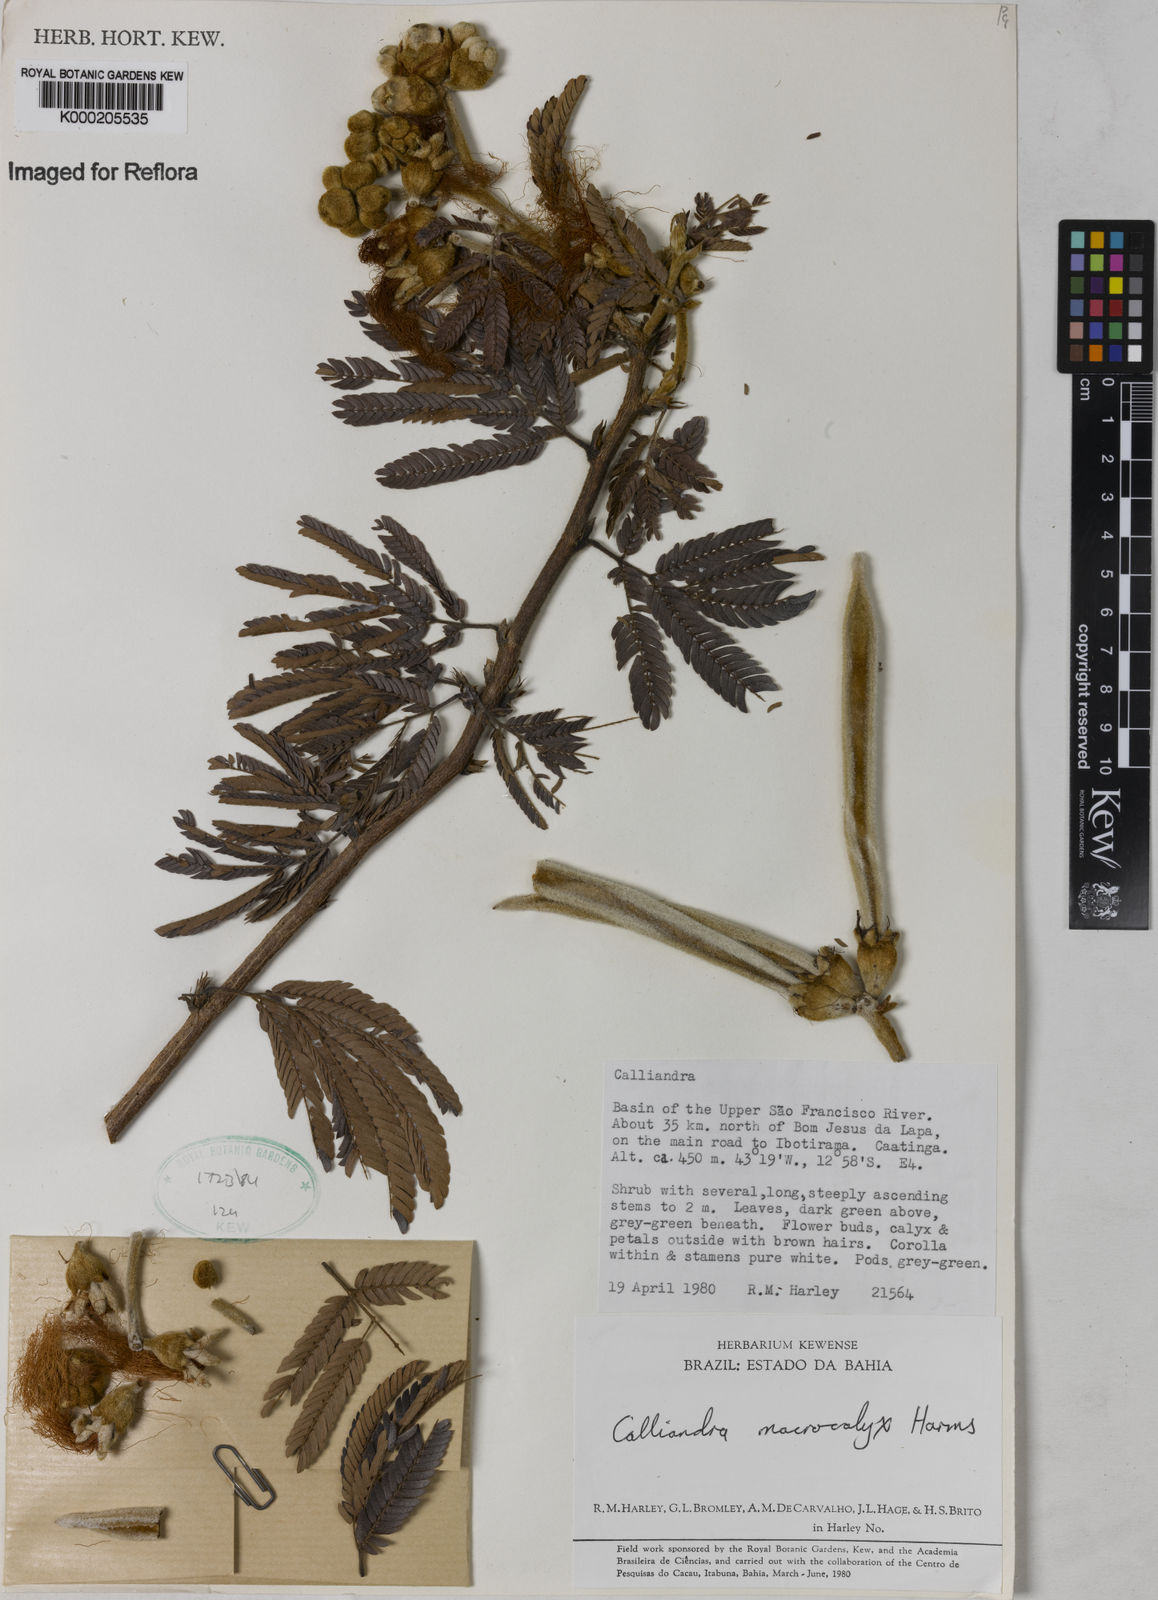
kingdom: Plantae
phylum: Tracheophyta
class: Magnoliopsida
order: Fabales
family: Fabaceae
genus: Calliandra
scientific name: Calliandra macrocalyx
